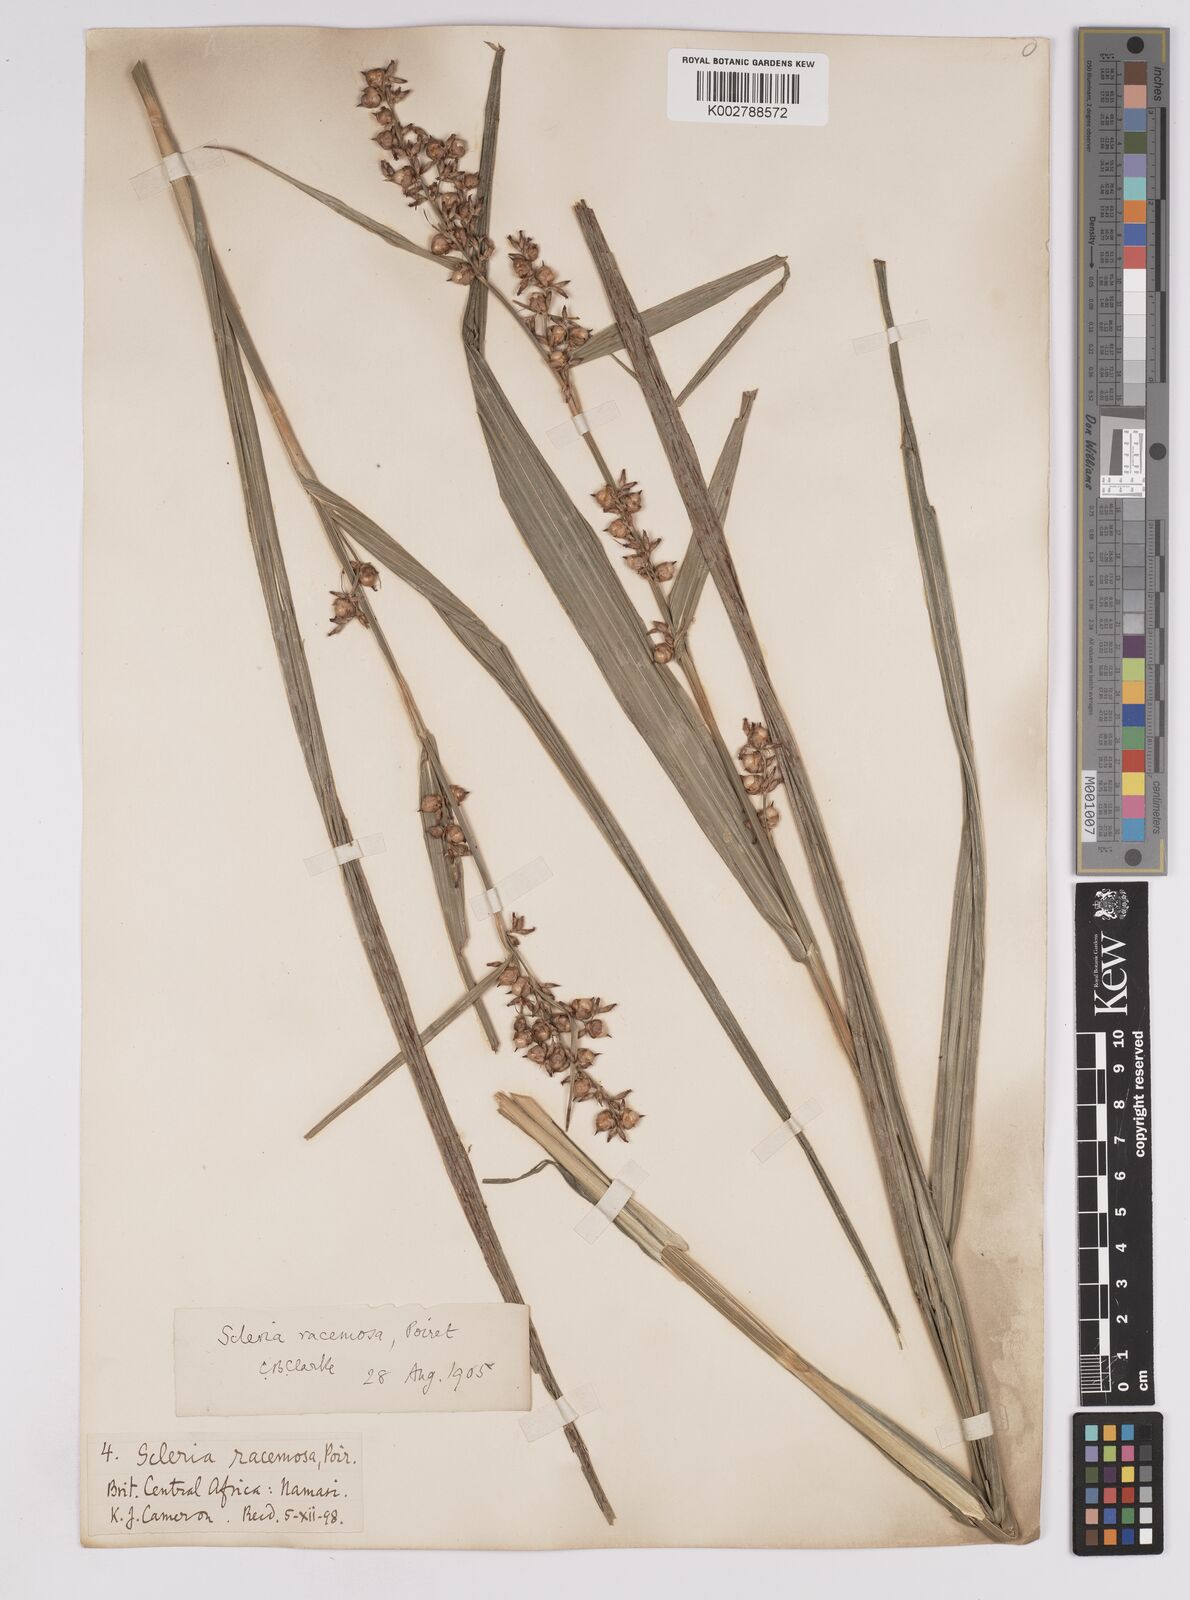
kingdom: Plantae
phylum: Tracheophyta
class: Liliopsida
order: Poales
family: Cyperaceae
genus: Scleria
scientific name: Scleria racemosa
